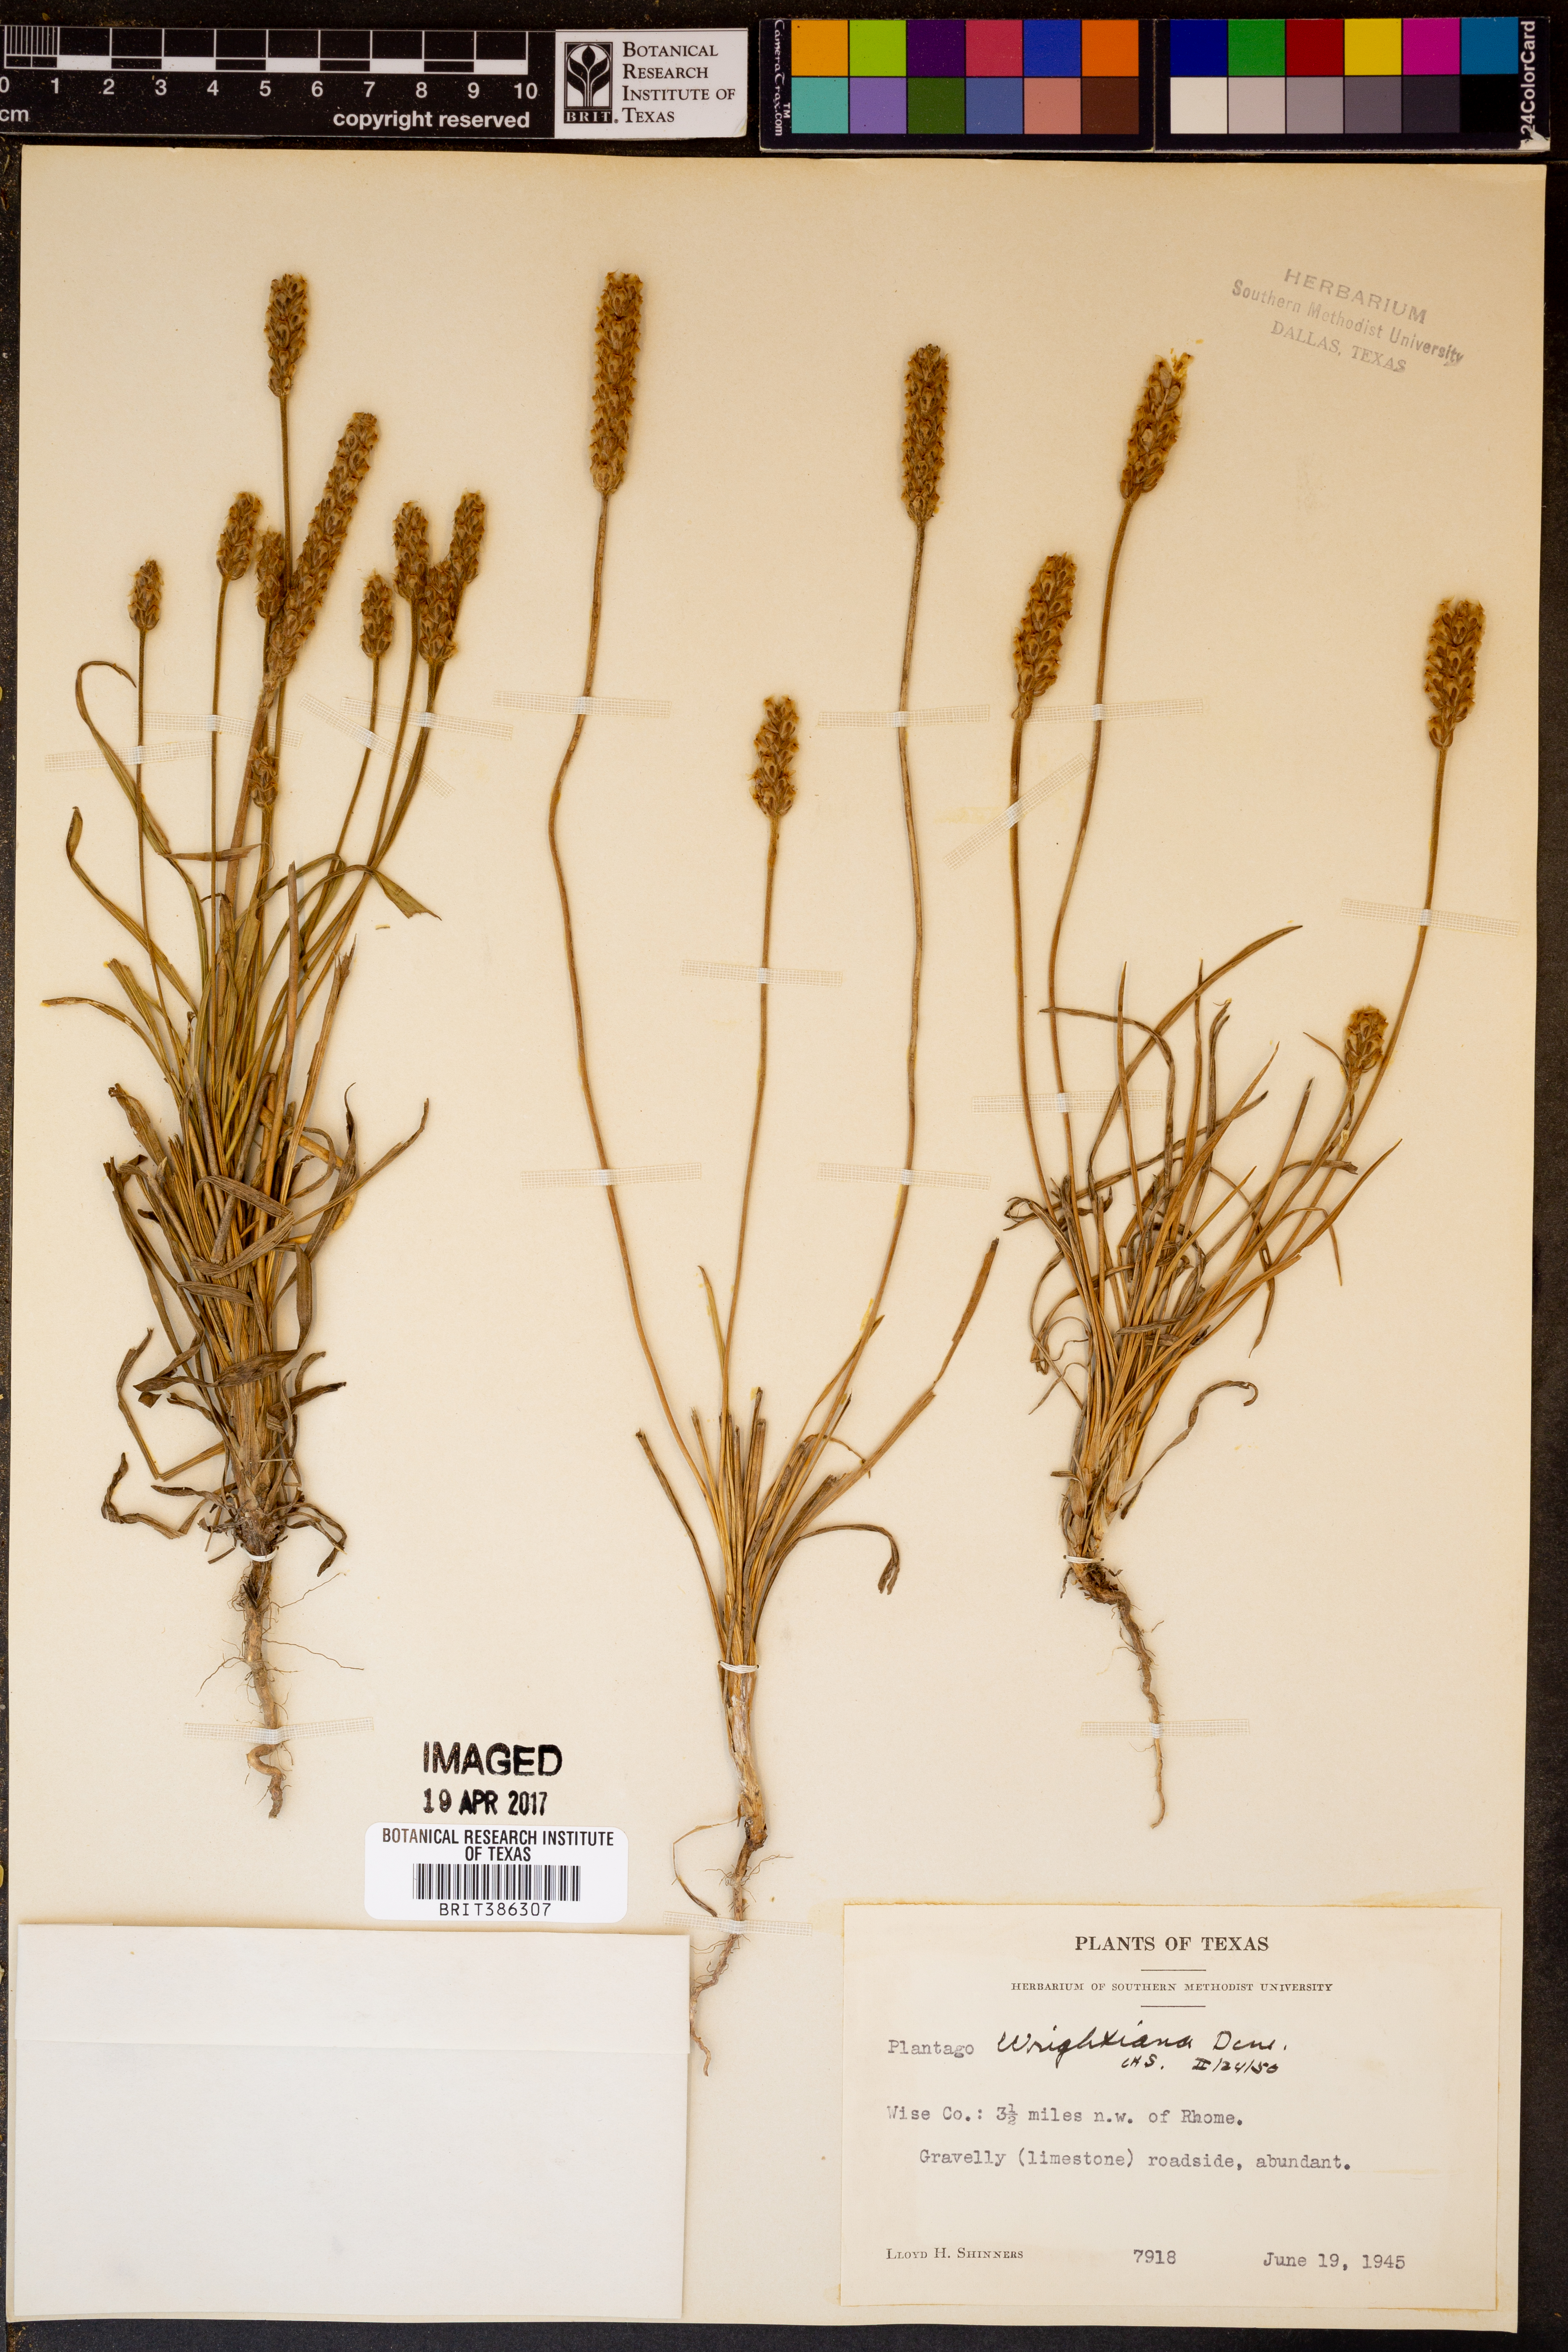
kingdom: Plantae
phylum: Tracheophyta
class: Magnoliopsida
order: Lamiales
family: Plantaginaceae
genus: Plantago
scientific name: Plantago wrightiana
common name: Wright's plantain
